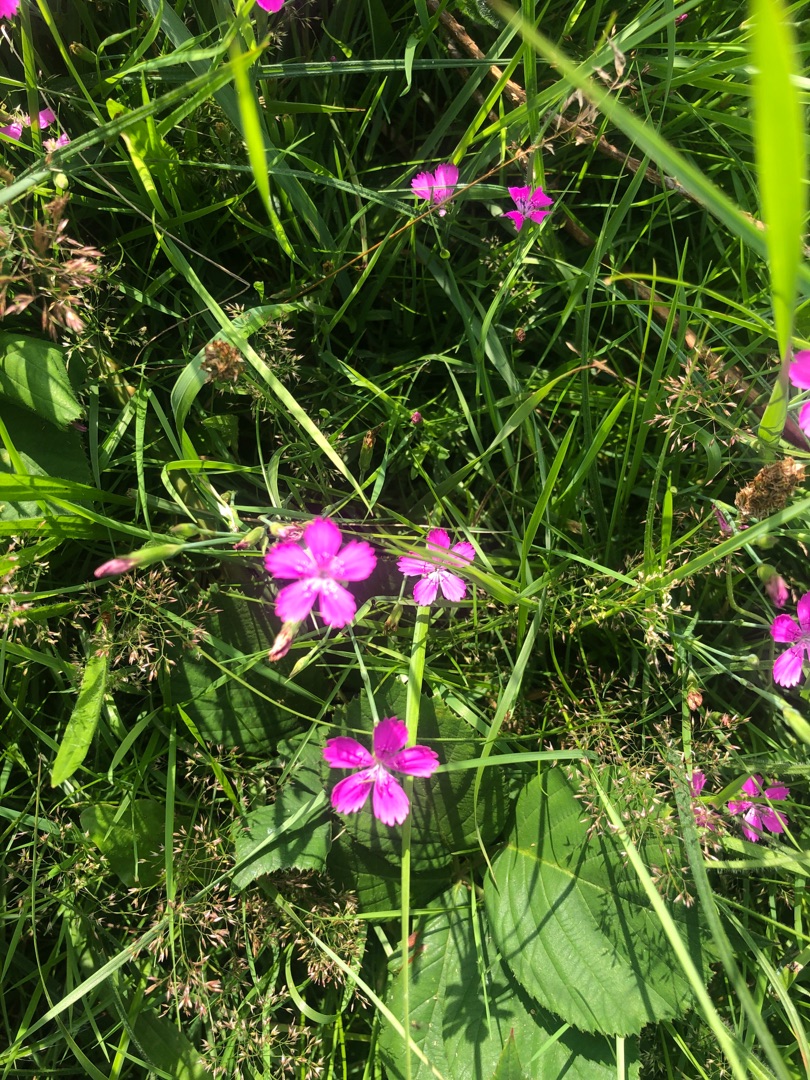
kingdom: Plantae
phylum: Tracheophyta
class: Magnoliopsida
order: Caryophyllales
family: Caryophyllaceae
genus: Dianthus
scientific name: Dianthus deltoides
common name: Bakke-nellike
